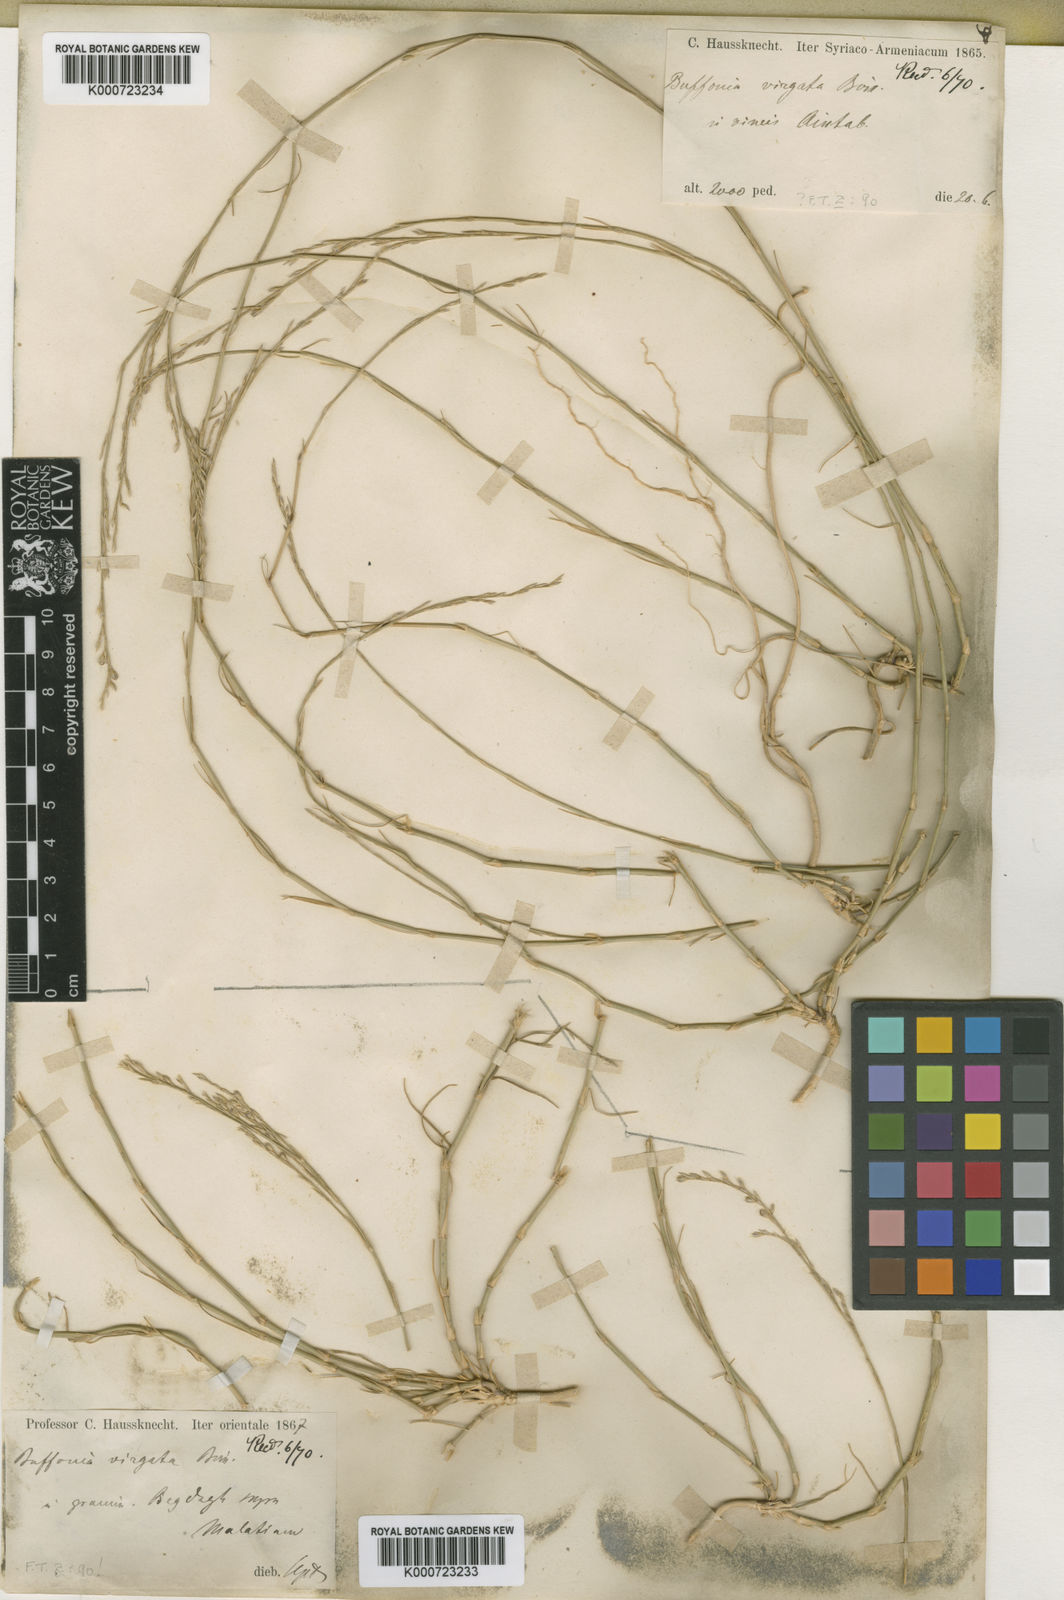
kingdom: Plantae
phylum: Tracheophyta
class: Magnoliopsida
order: Caryophyllales
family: Caryophyllaceae
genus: Bufonia
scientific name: Bufonia virgata
